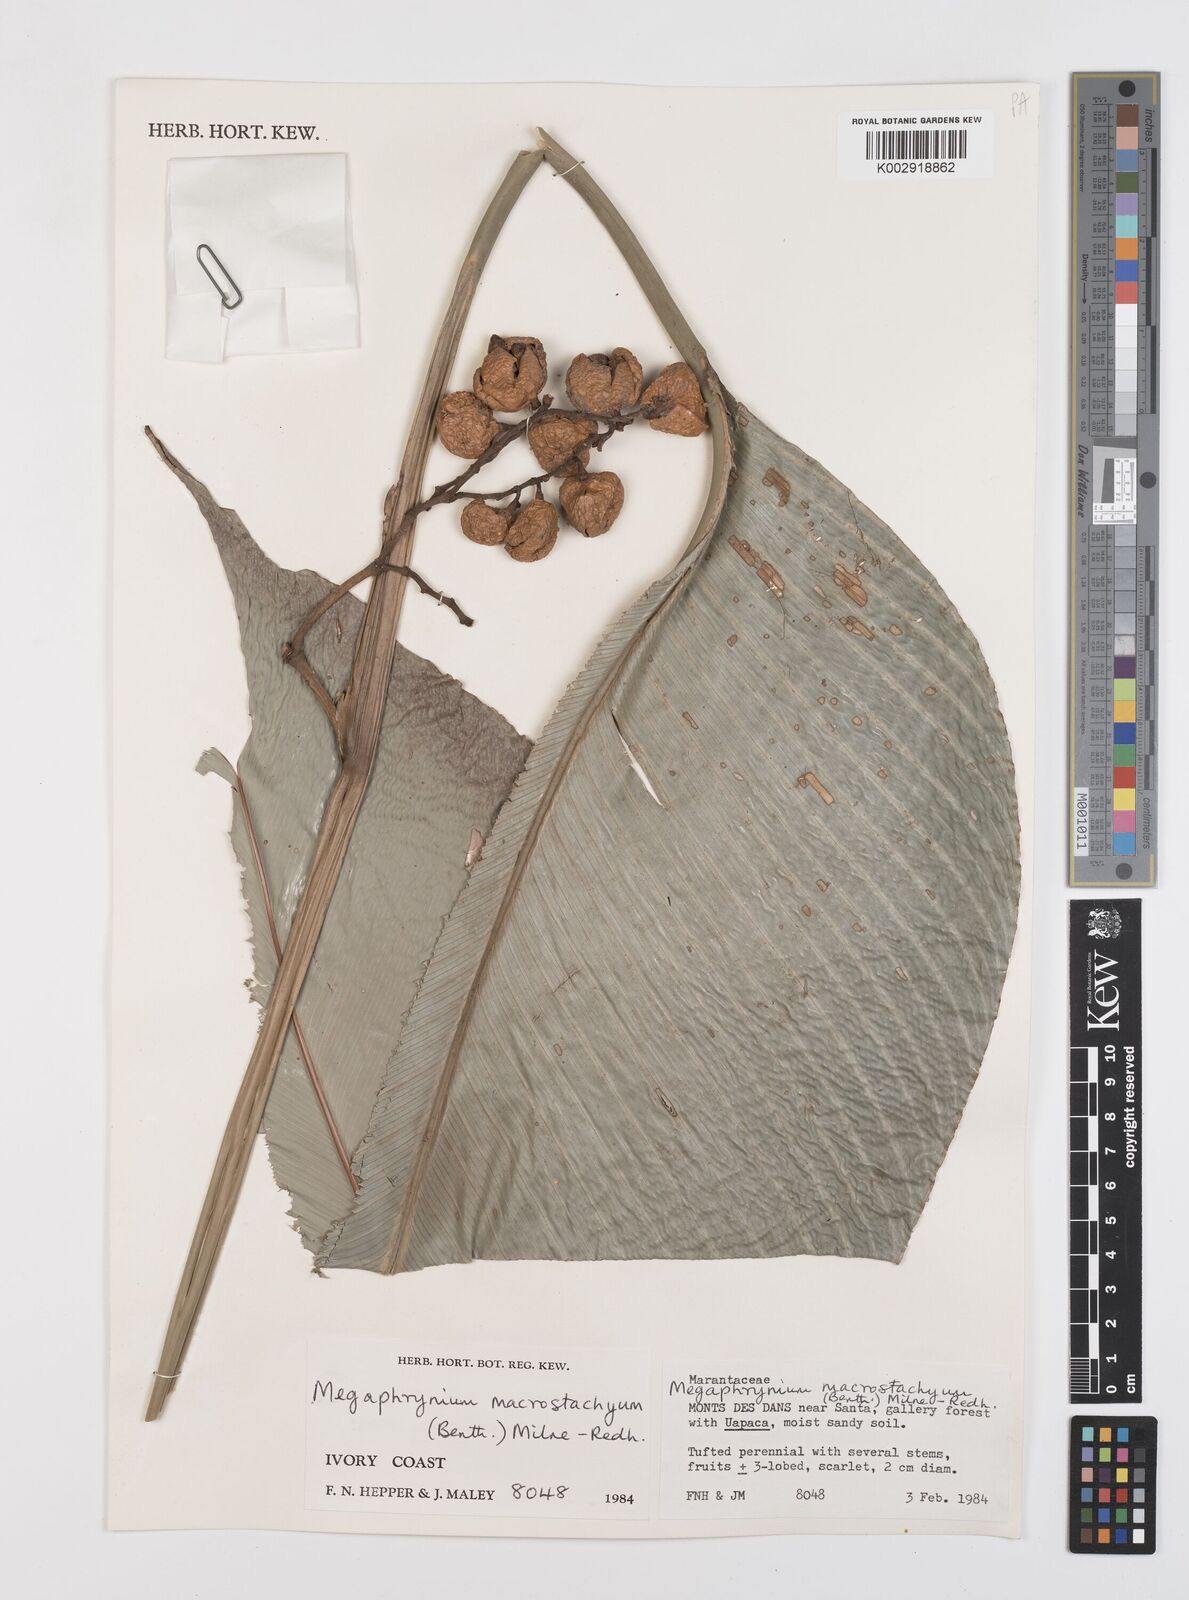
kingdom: Plantae
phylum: Tracheophyta
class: Liliopsida
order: Zingiberales
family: Marantaceae
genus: Megaphrynium
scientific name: Megaphrynium macrostachyum
